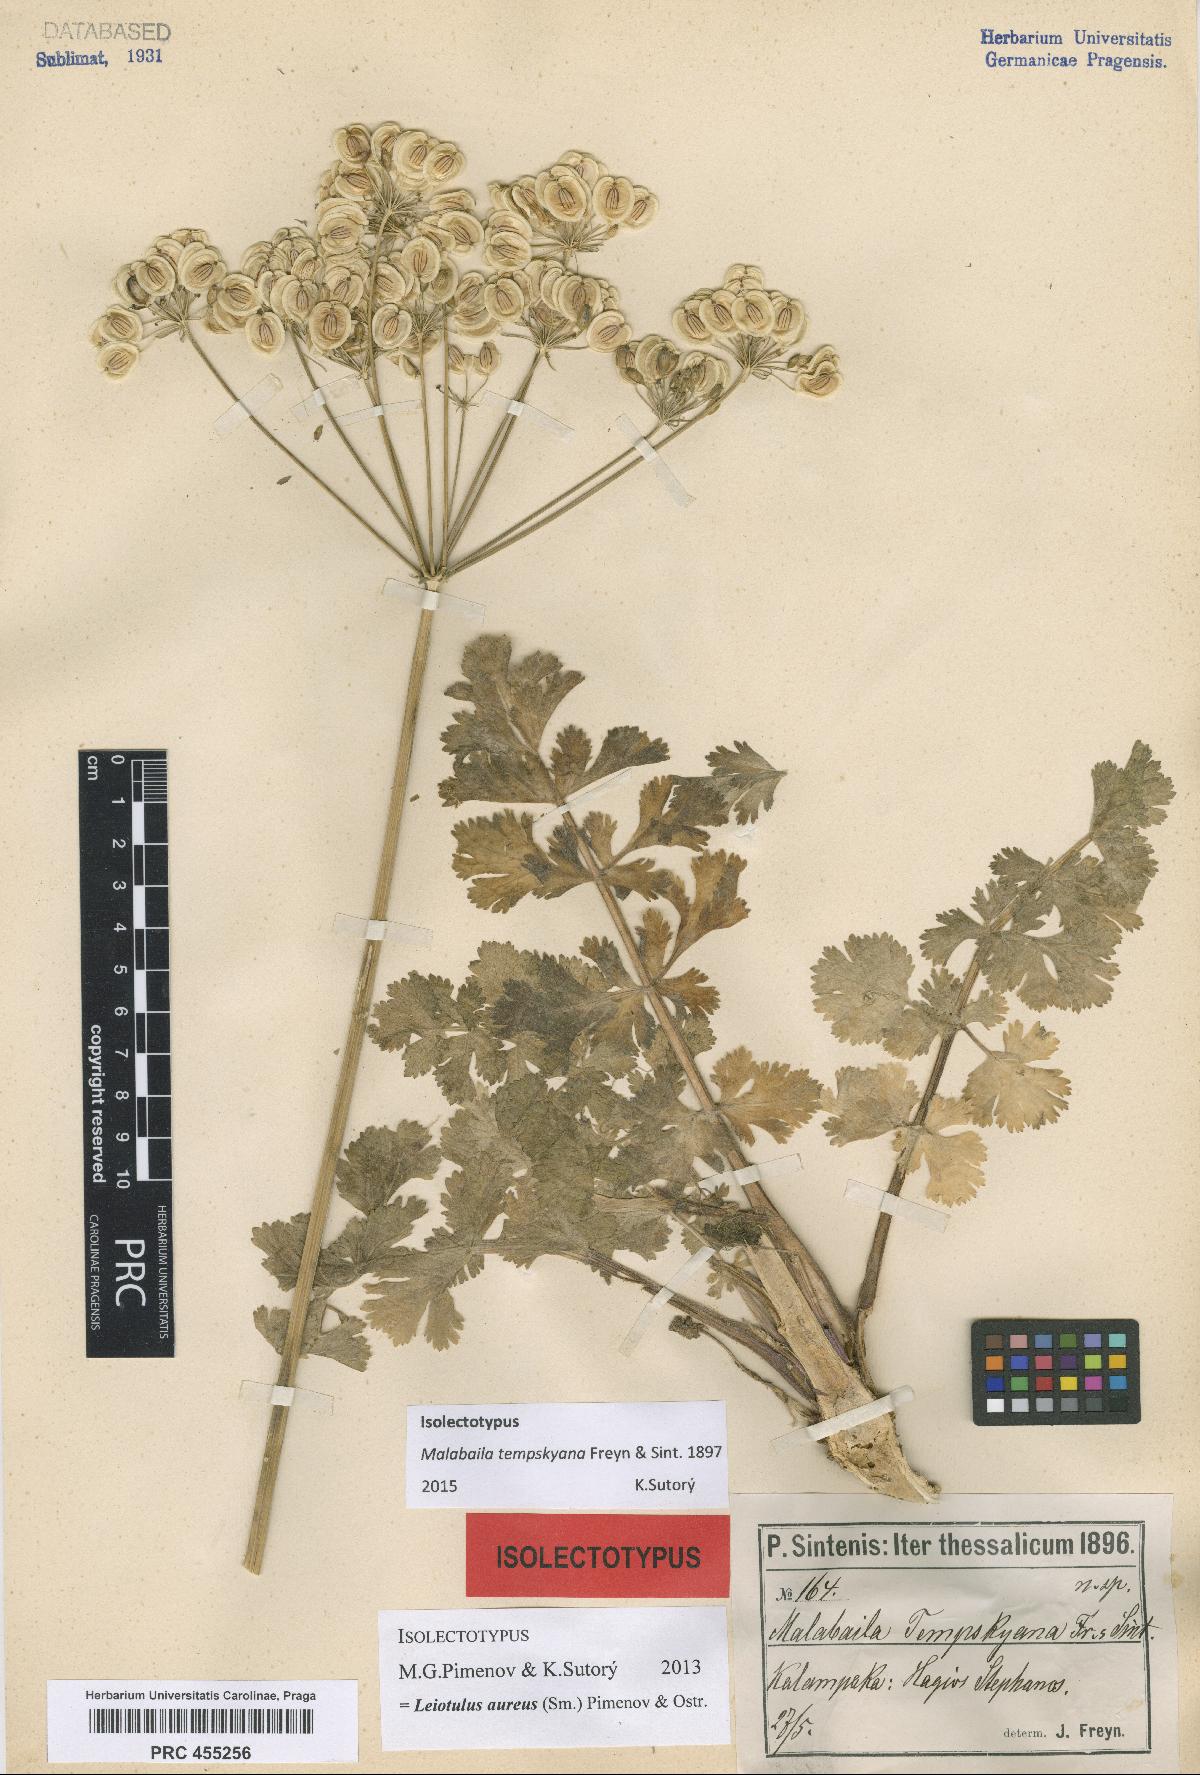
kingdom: Plantae
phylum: Tracheophyta
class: Magnoliopsida
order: Apiales
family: Apiaceae
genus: Leiotulus
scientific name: Leiotulus involucratus
